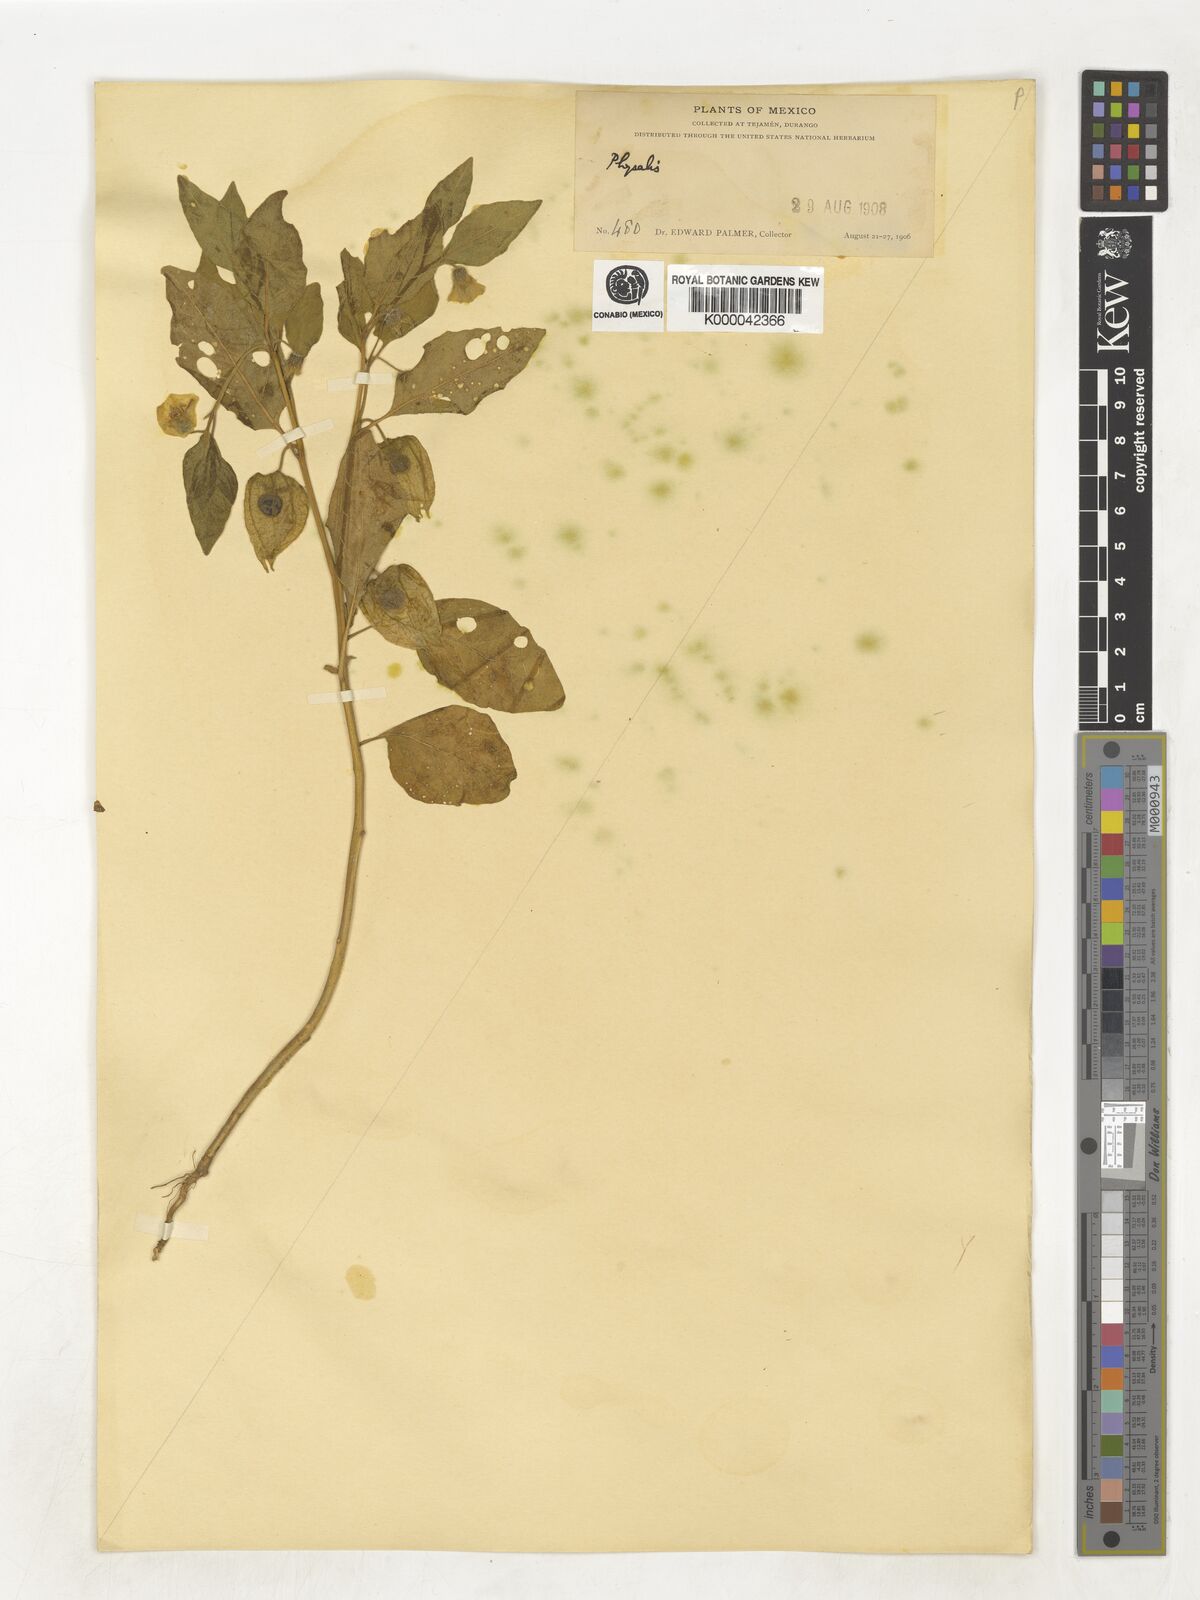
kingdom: Plantae
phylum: Tracheophyta
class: Magnoliopsida
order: Solanales
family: Solanaceae
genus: Physalis
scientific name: Physalis
